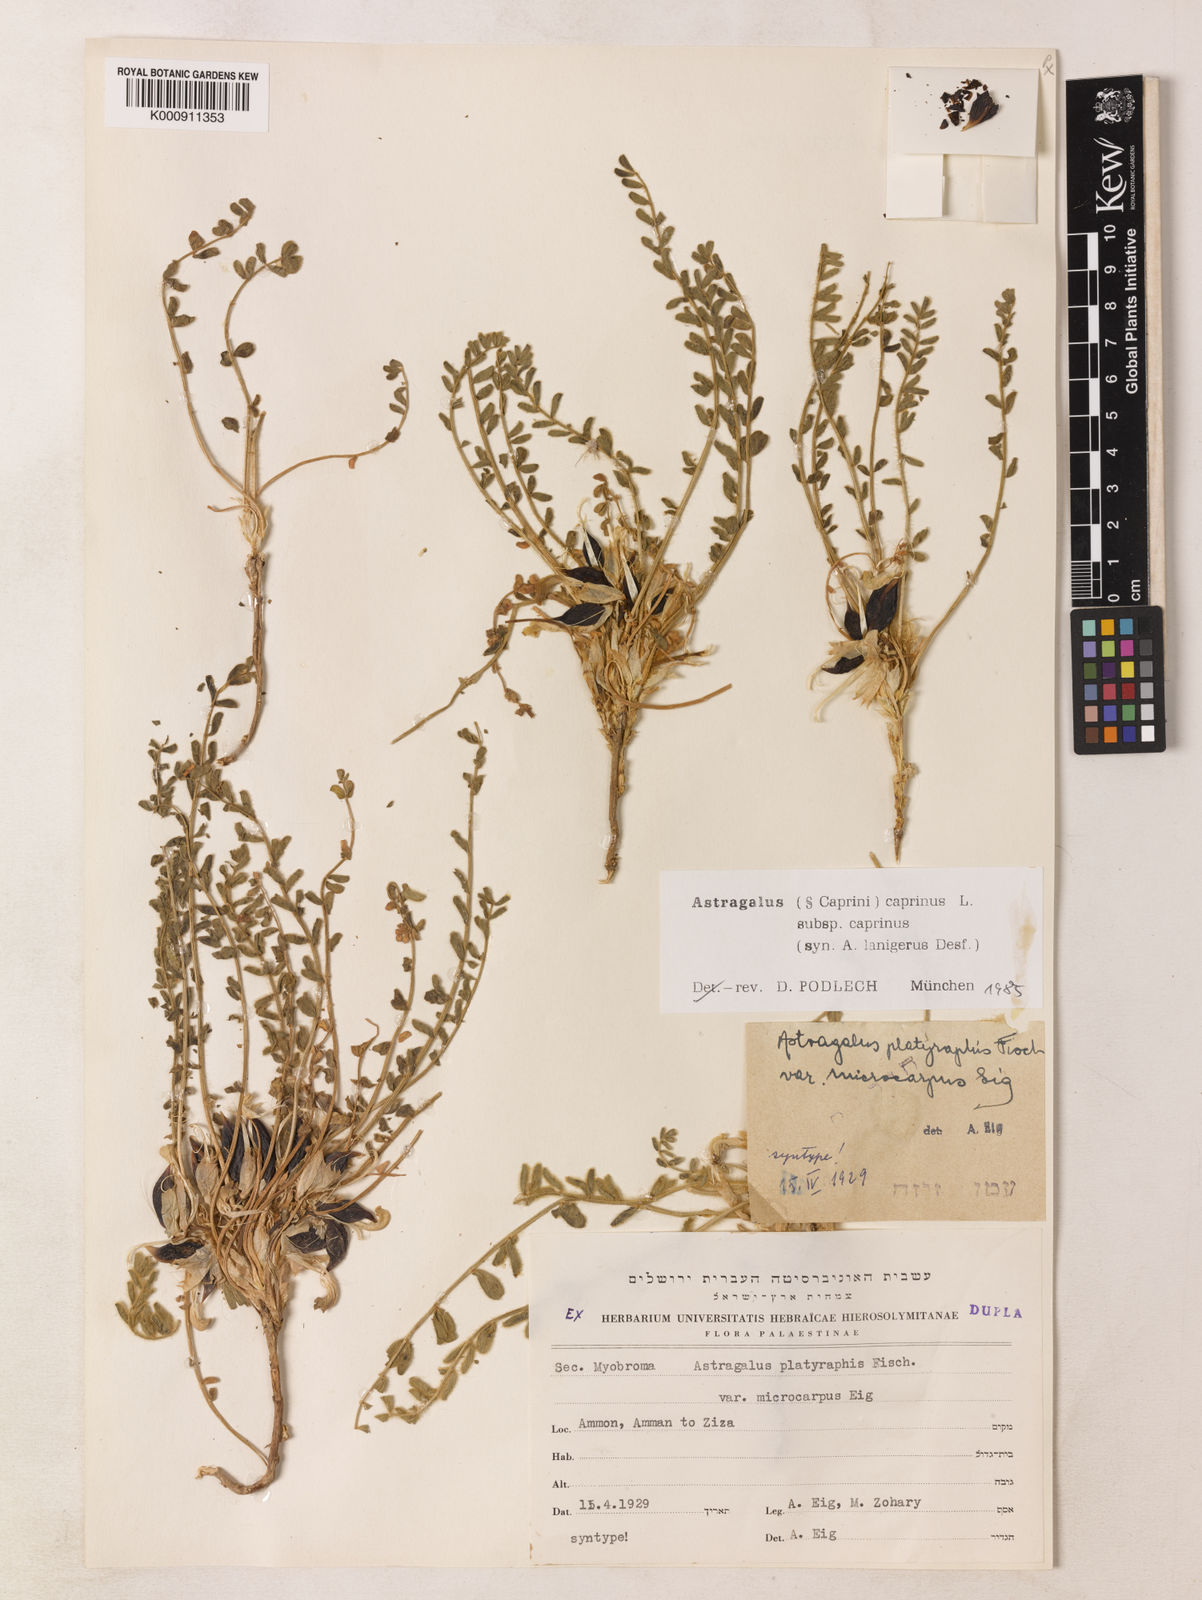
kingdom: Plantae
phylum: Tracheophyta
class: Magnoliopsida
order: Fabales
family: Fabaceae
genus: Astragalus
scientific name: Astragalus caprinus
